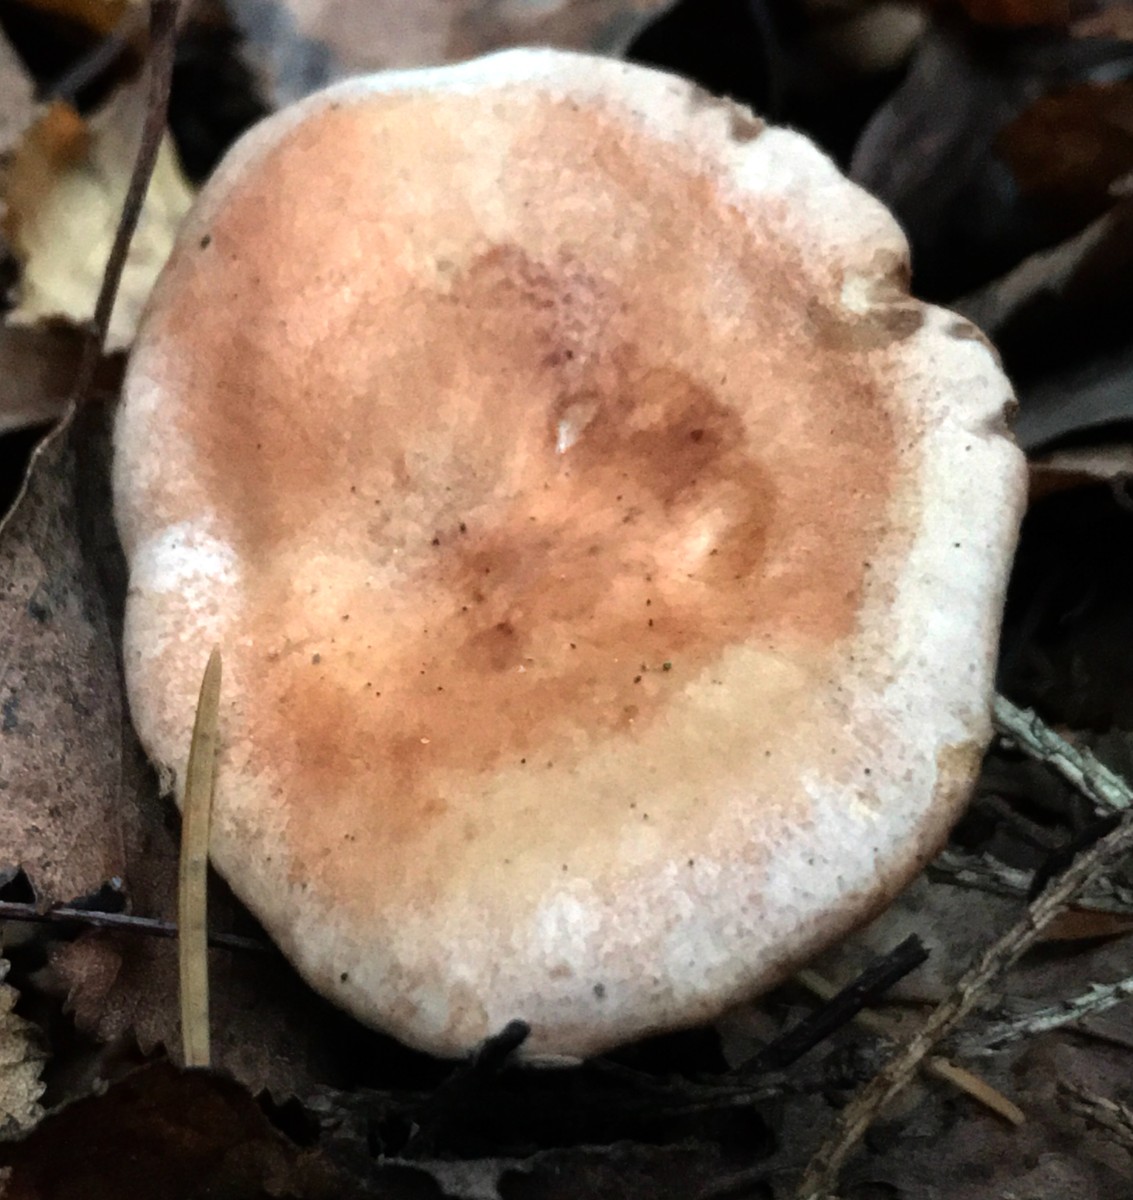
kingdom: Fungi
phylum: Basidiomycota
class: Agaricomycetes
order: Russulales
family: Russulaceae
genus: Lactarius
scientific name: Lactarius aurantiacus
